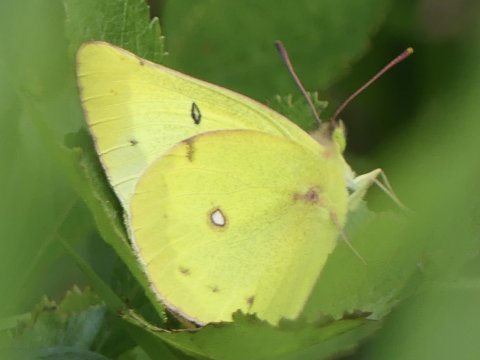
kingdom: Animalia
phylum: Arthropoda
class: Insecta
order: Lepidoptera
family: Pieridae
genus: Colias
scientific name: Colias philodice
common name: Clouded Sulphur
